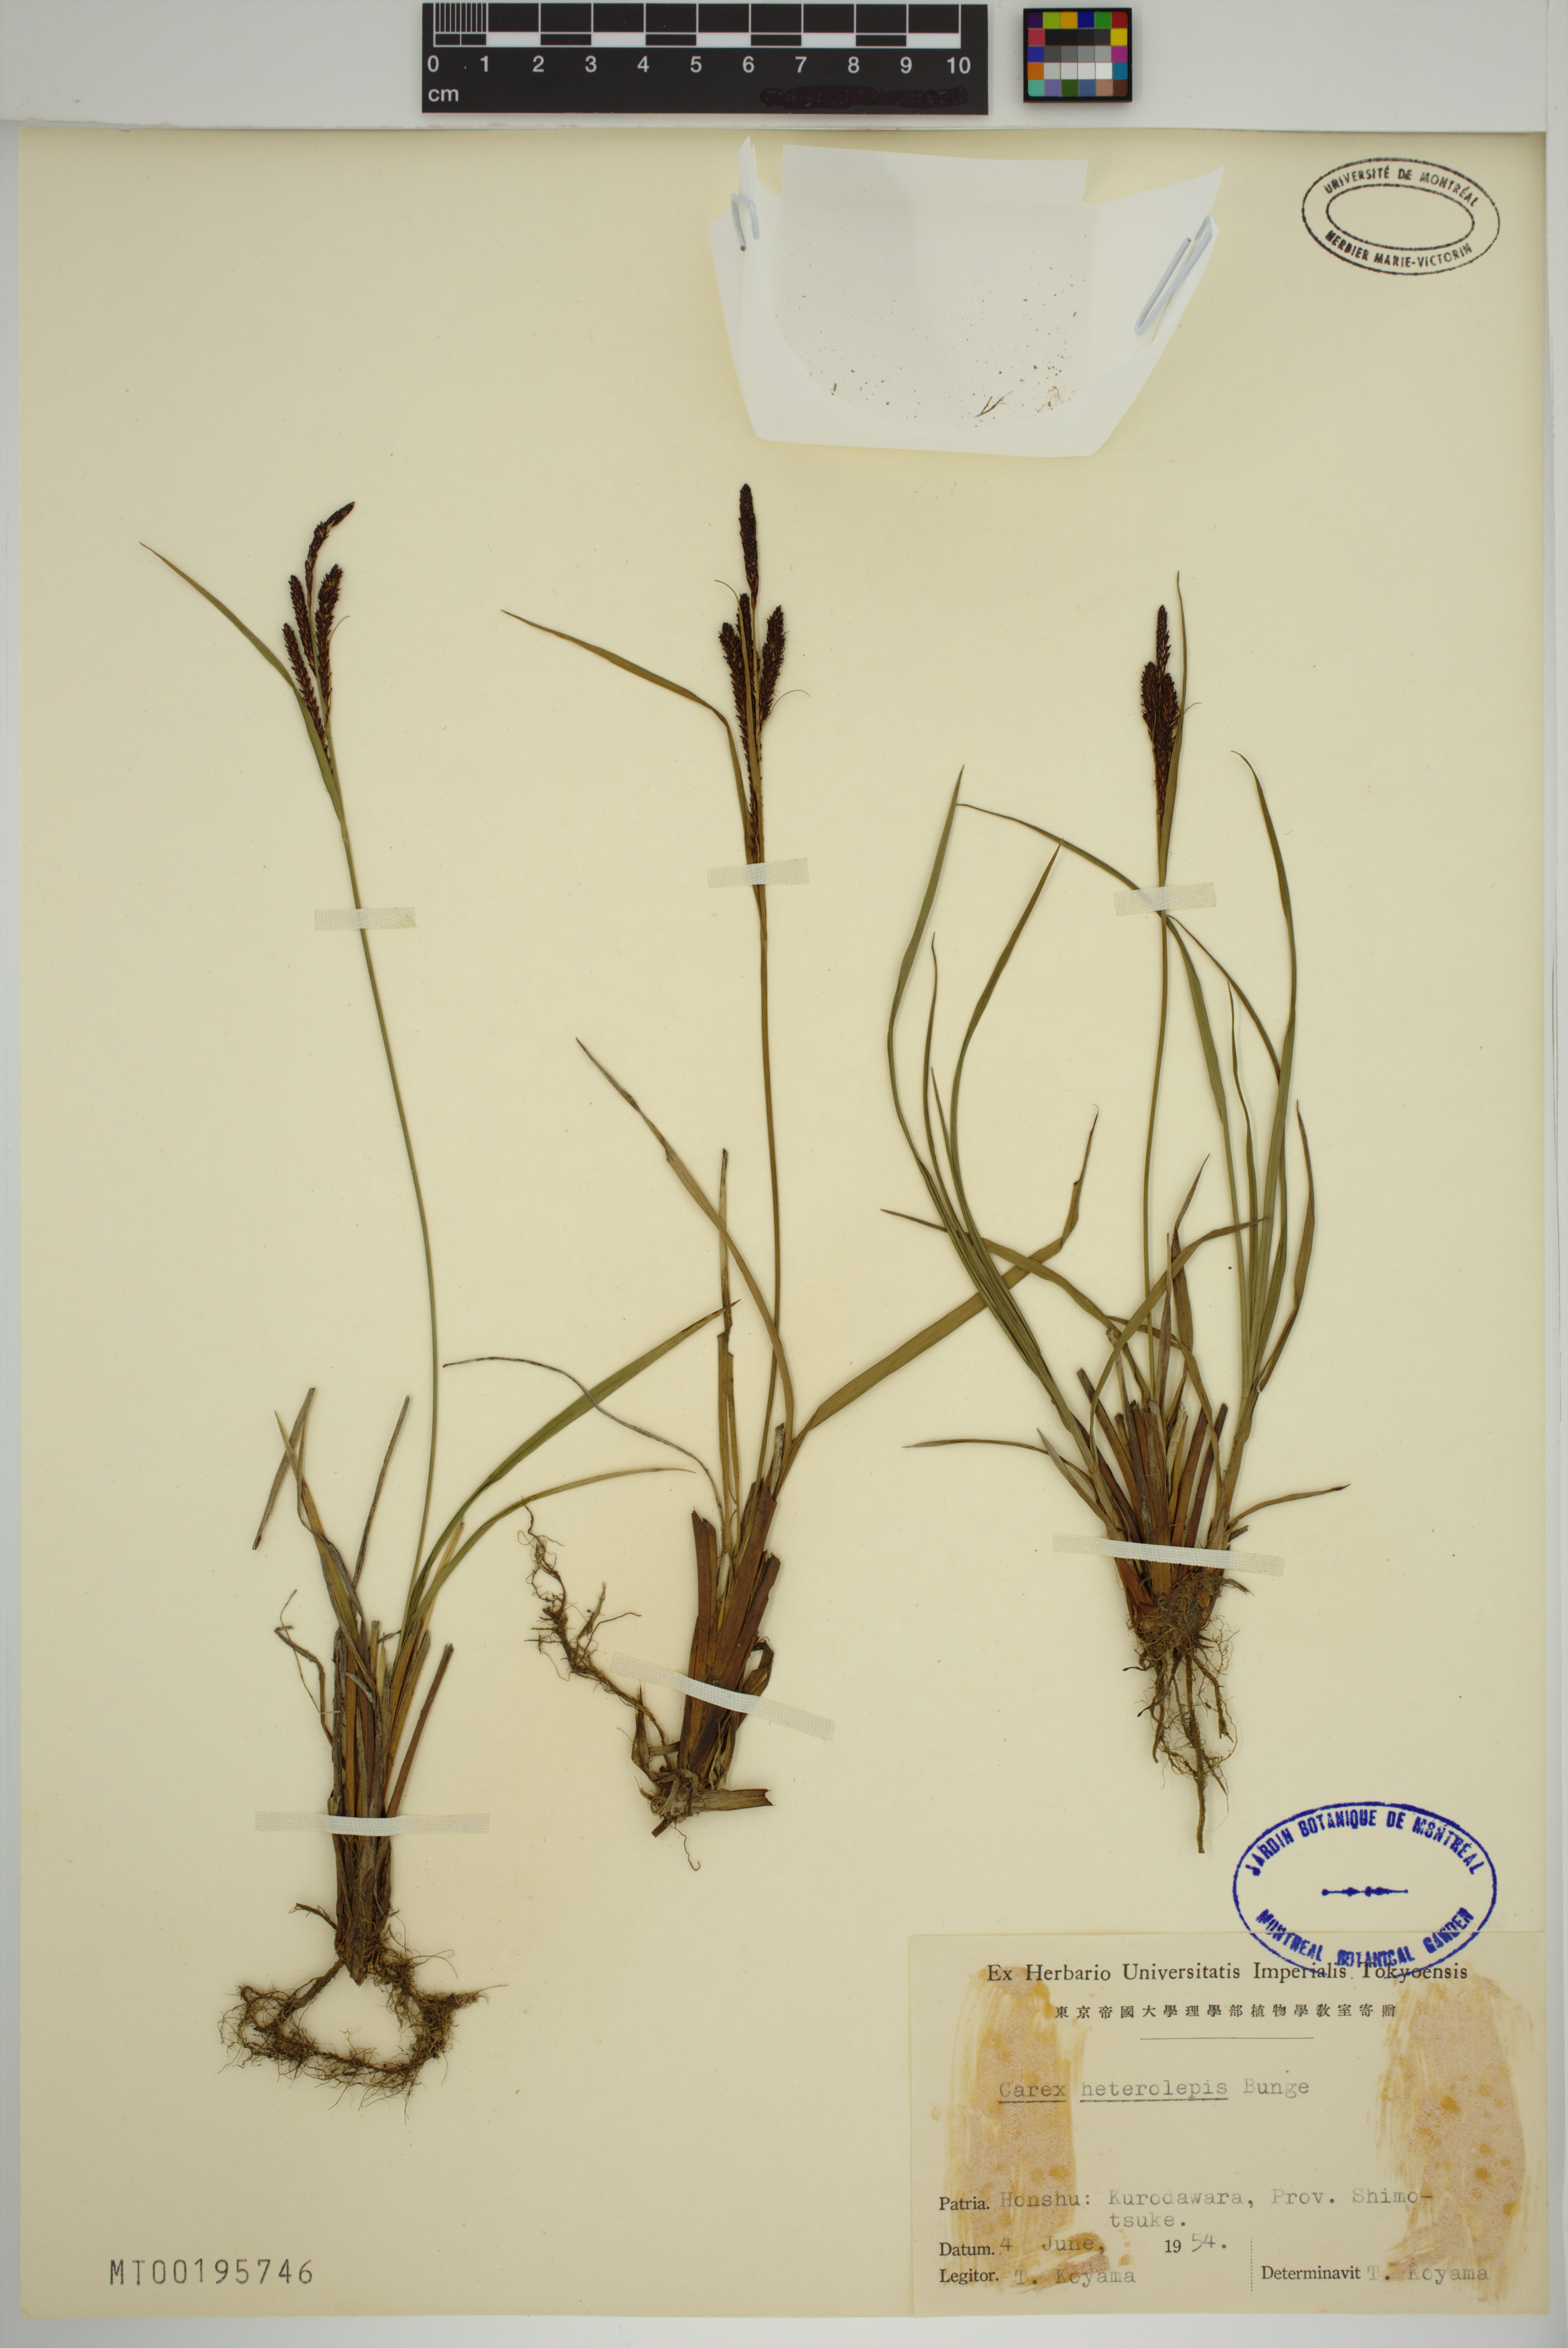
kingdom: Plantae
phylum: Tracheophyta
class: Liliopsida
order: Poales
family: Cyperaceae
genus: Carex
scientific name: Carex heterolepis
